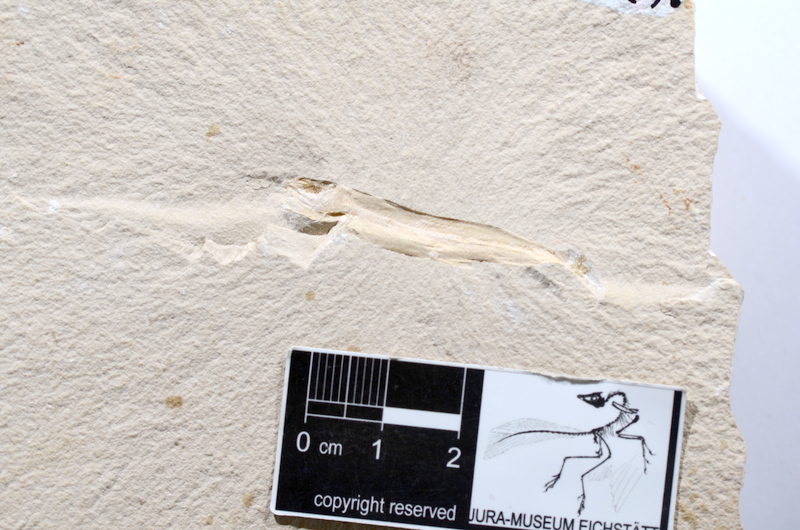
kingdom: Animalia
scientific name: Animalia
